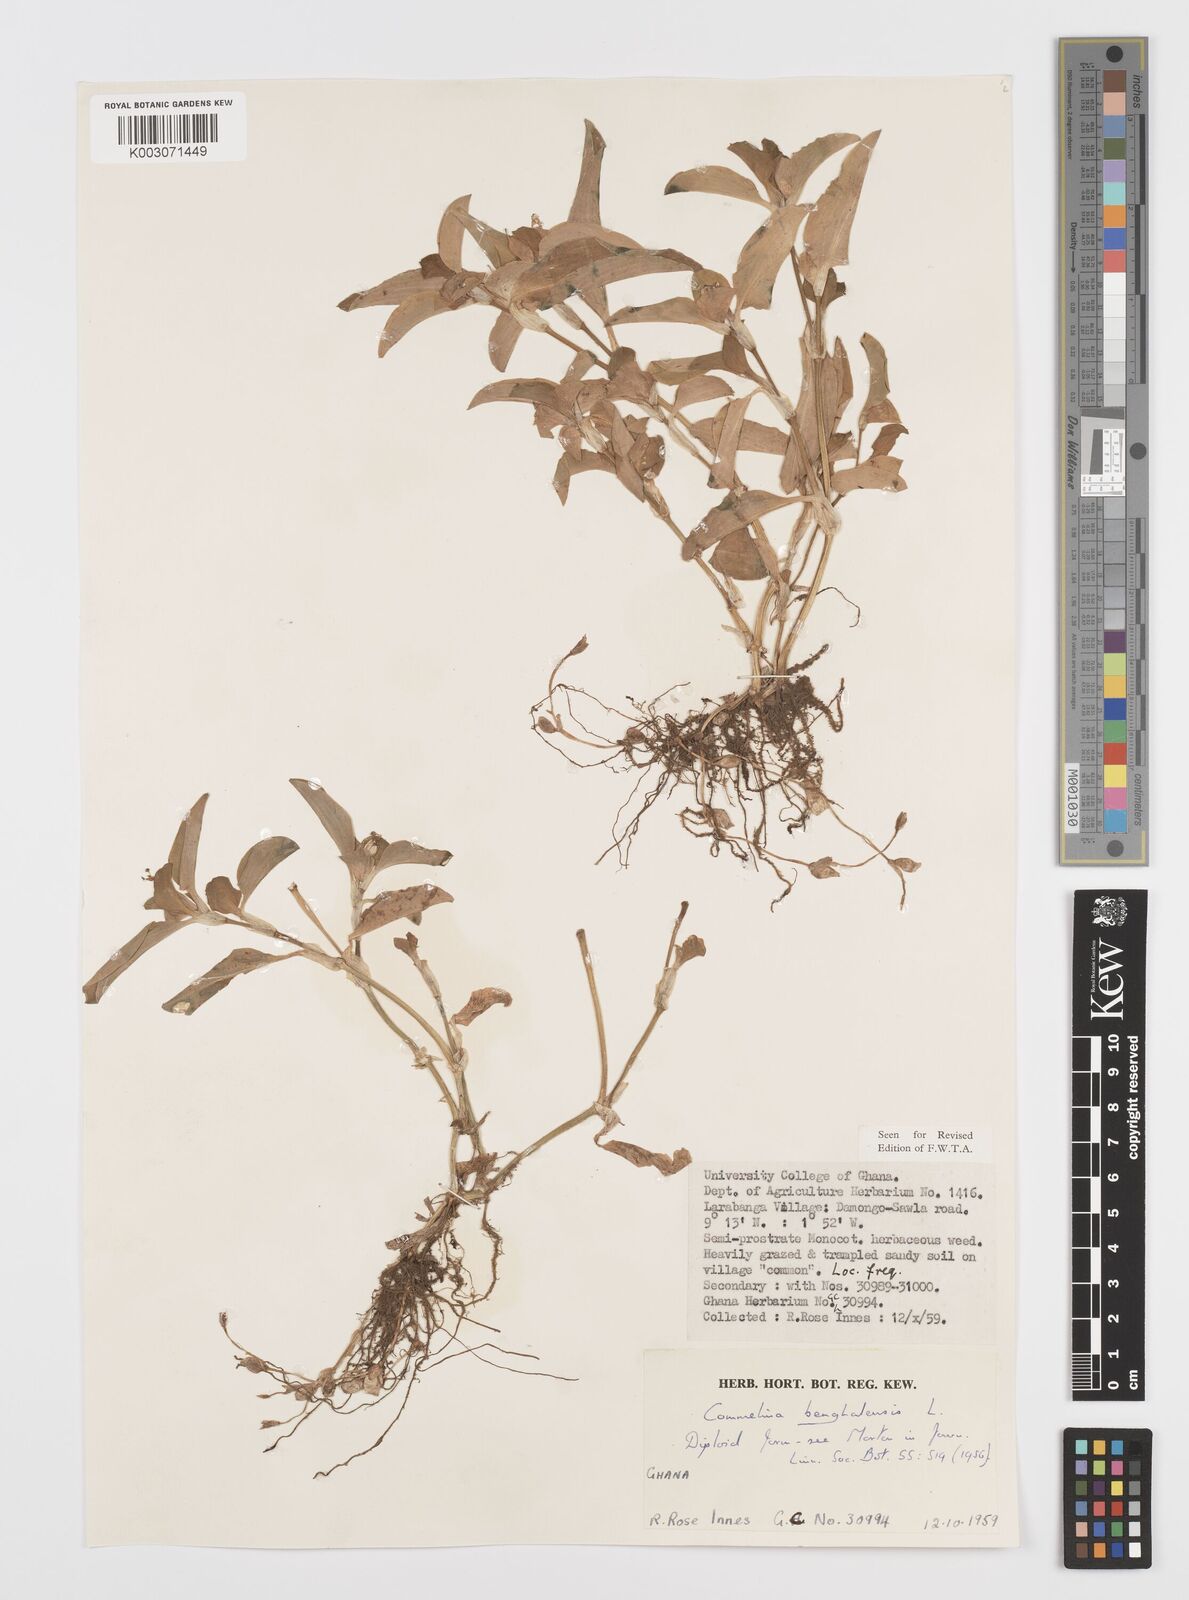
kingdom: Plantae
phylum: Tracheophyta
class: Liliopsida
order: Commelinales
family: Commelinaceae
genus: Commelina
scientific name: Commelina benghalensis
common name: Jio
